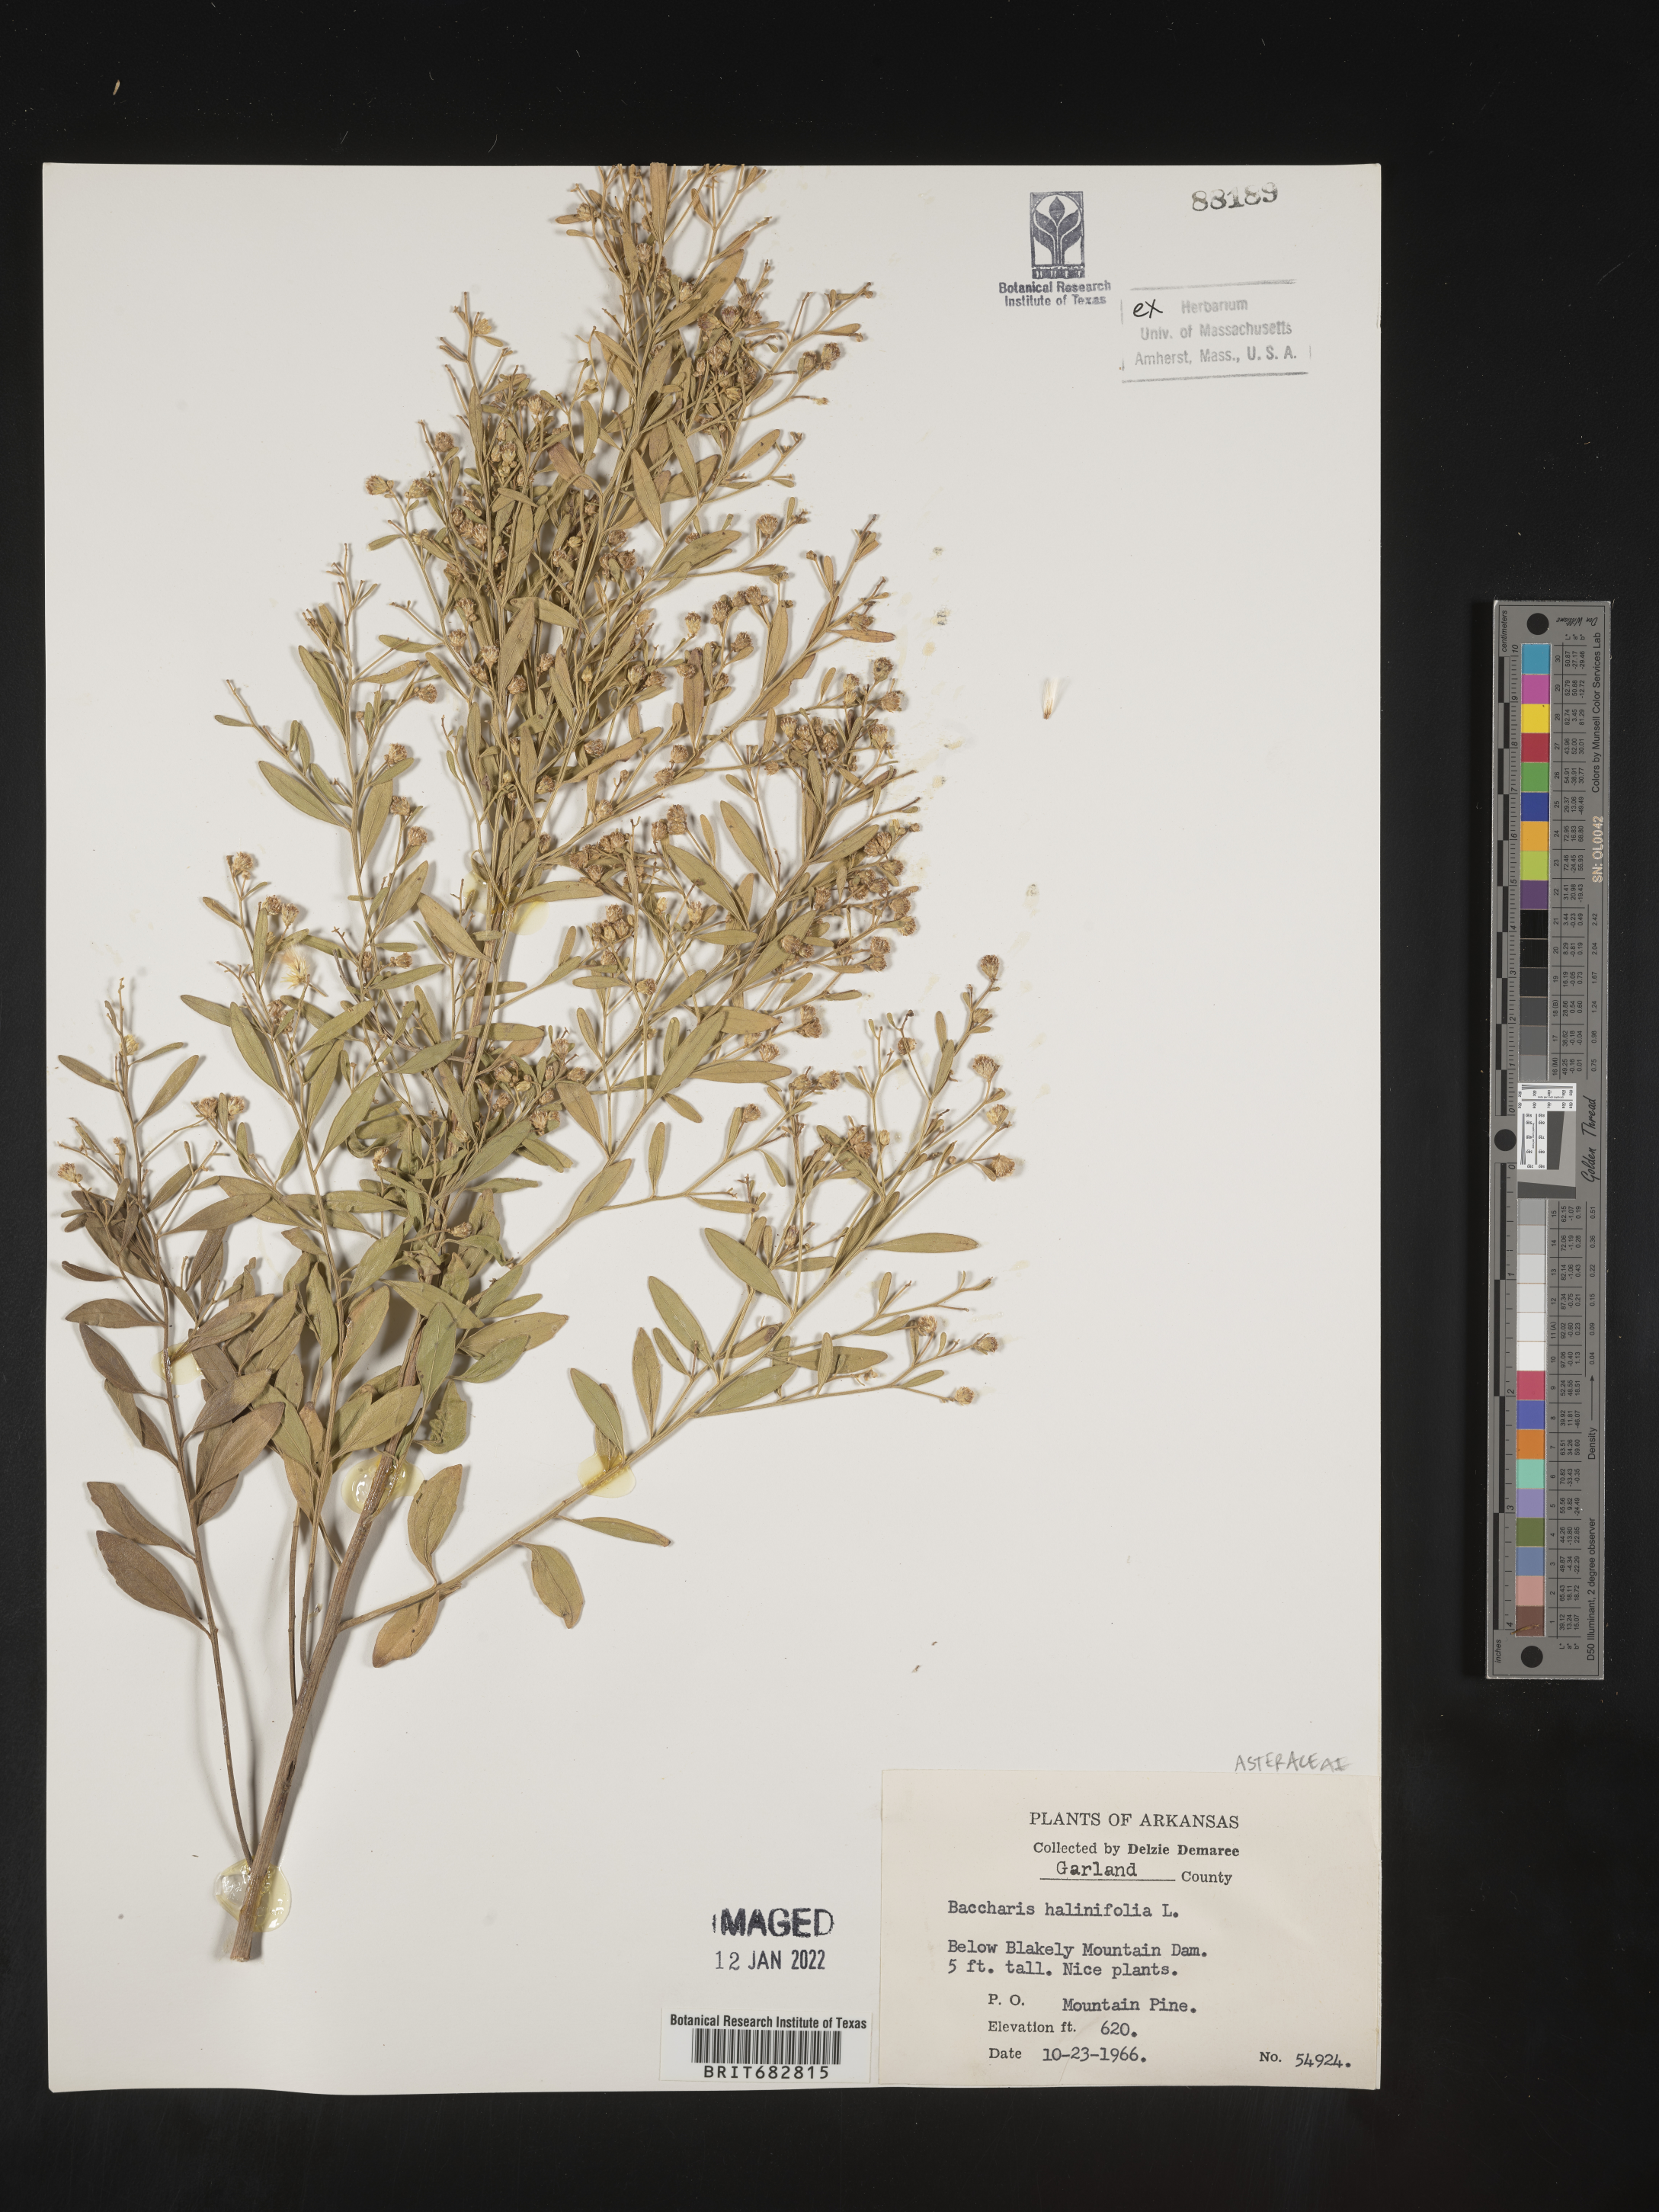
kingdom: Plantae
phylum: Tracheophyta
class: Magnoliopsida
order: Asterales
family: Asteraceae
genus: Nidorella
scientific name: Nidorella ivifolia
